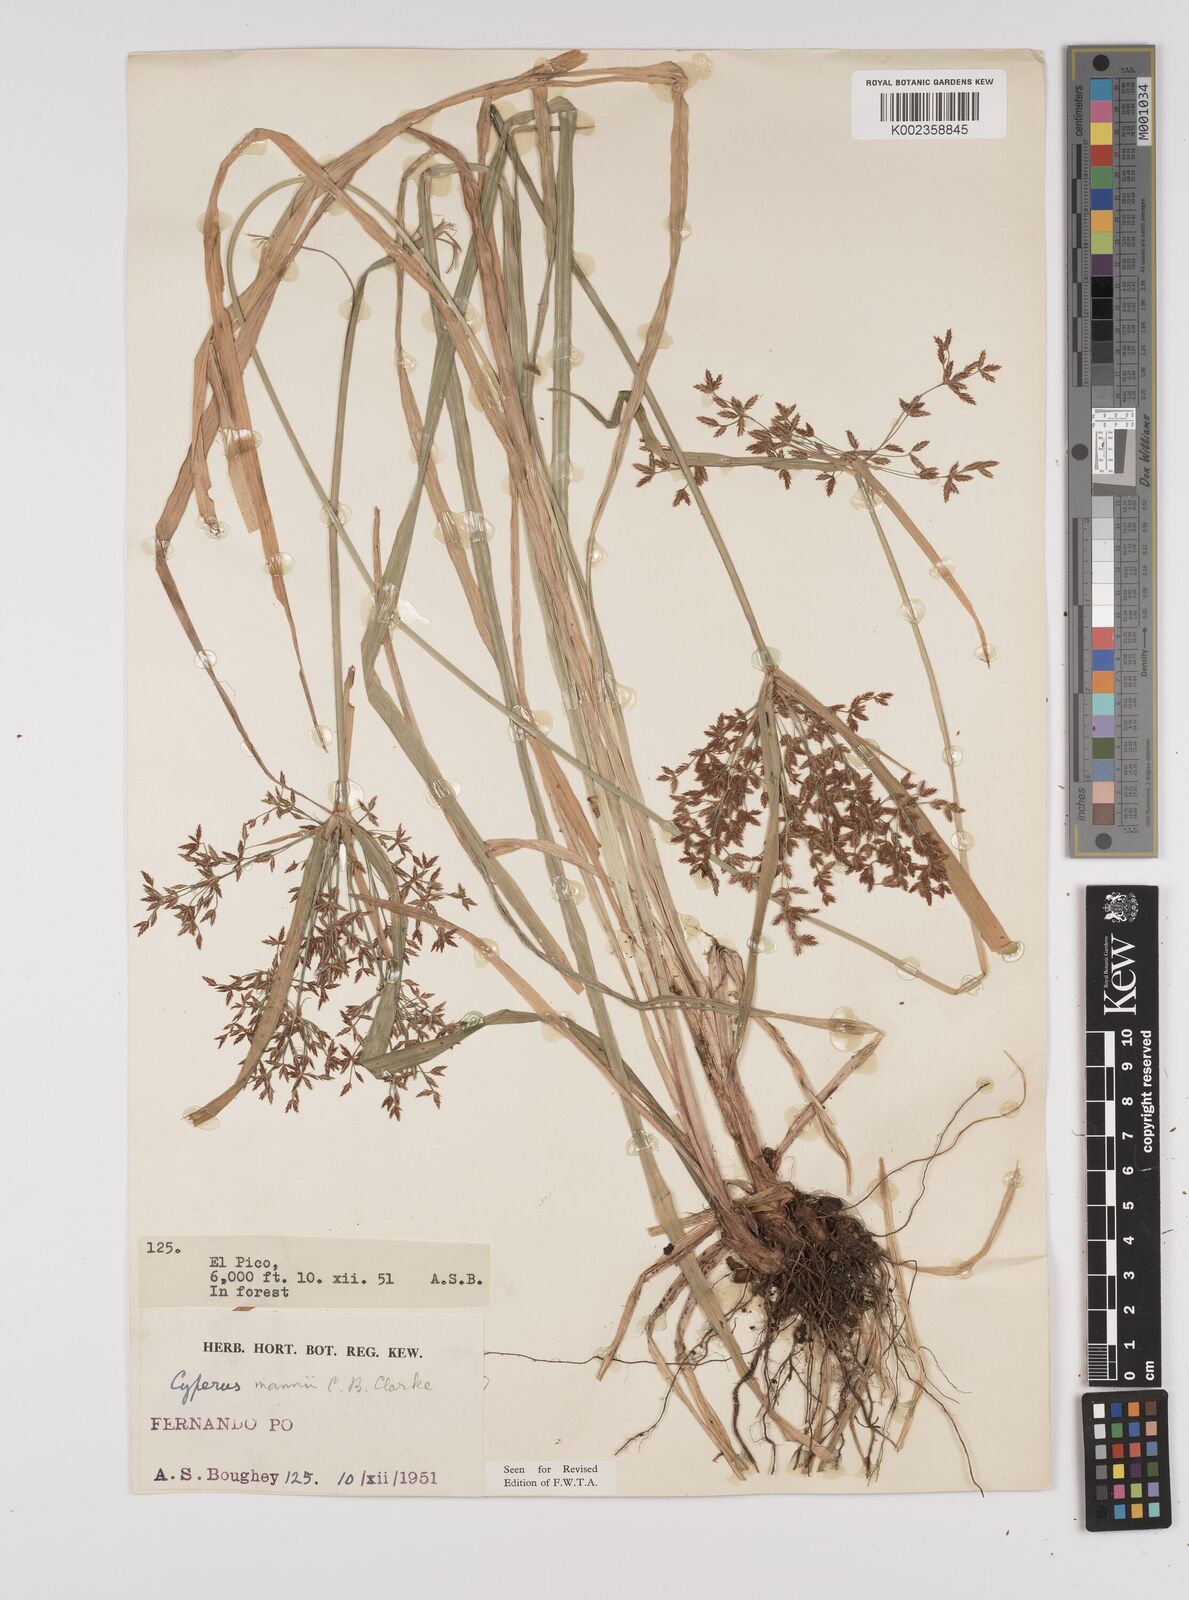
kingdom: Plantae
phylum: Tracheophyta
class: Liliopsida
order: Poales
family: Cyperaceae
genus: Cyperus
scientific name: Cyperus baronii
